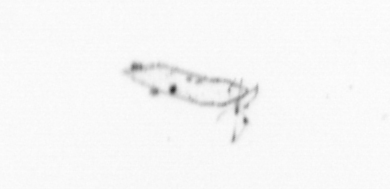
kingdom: Chromista
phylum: Ochrophyta
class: Bacillariophyceae
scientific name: Bacillariophyceae
